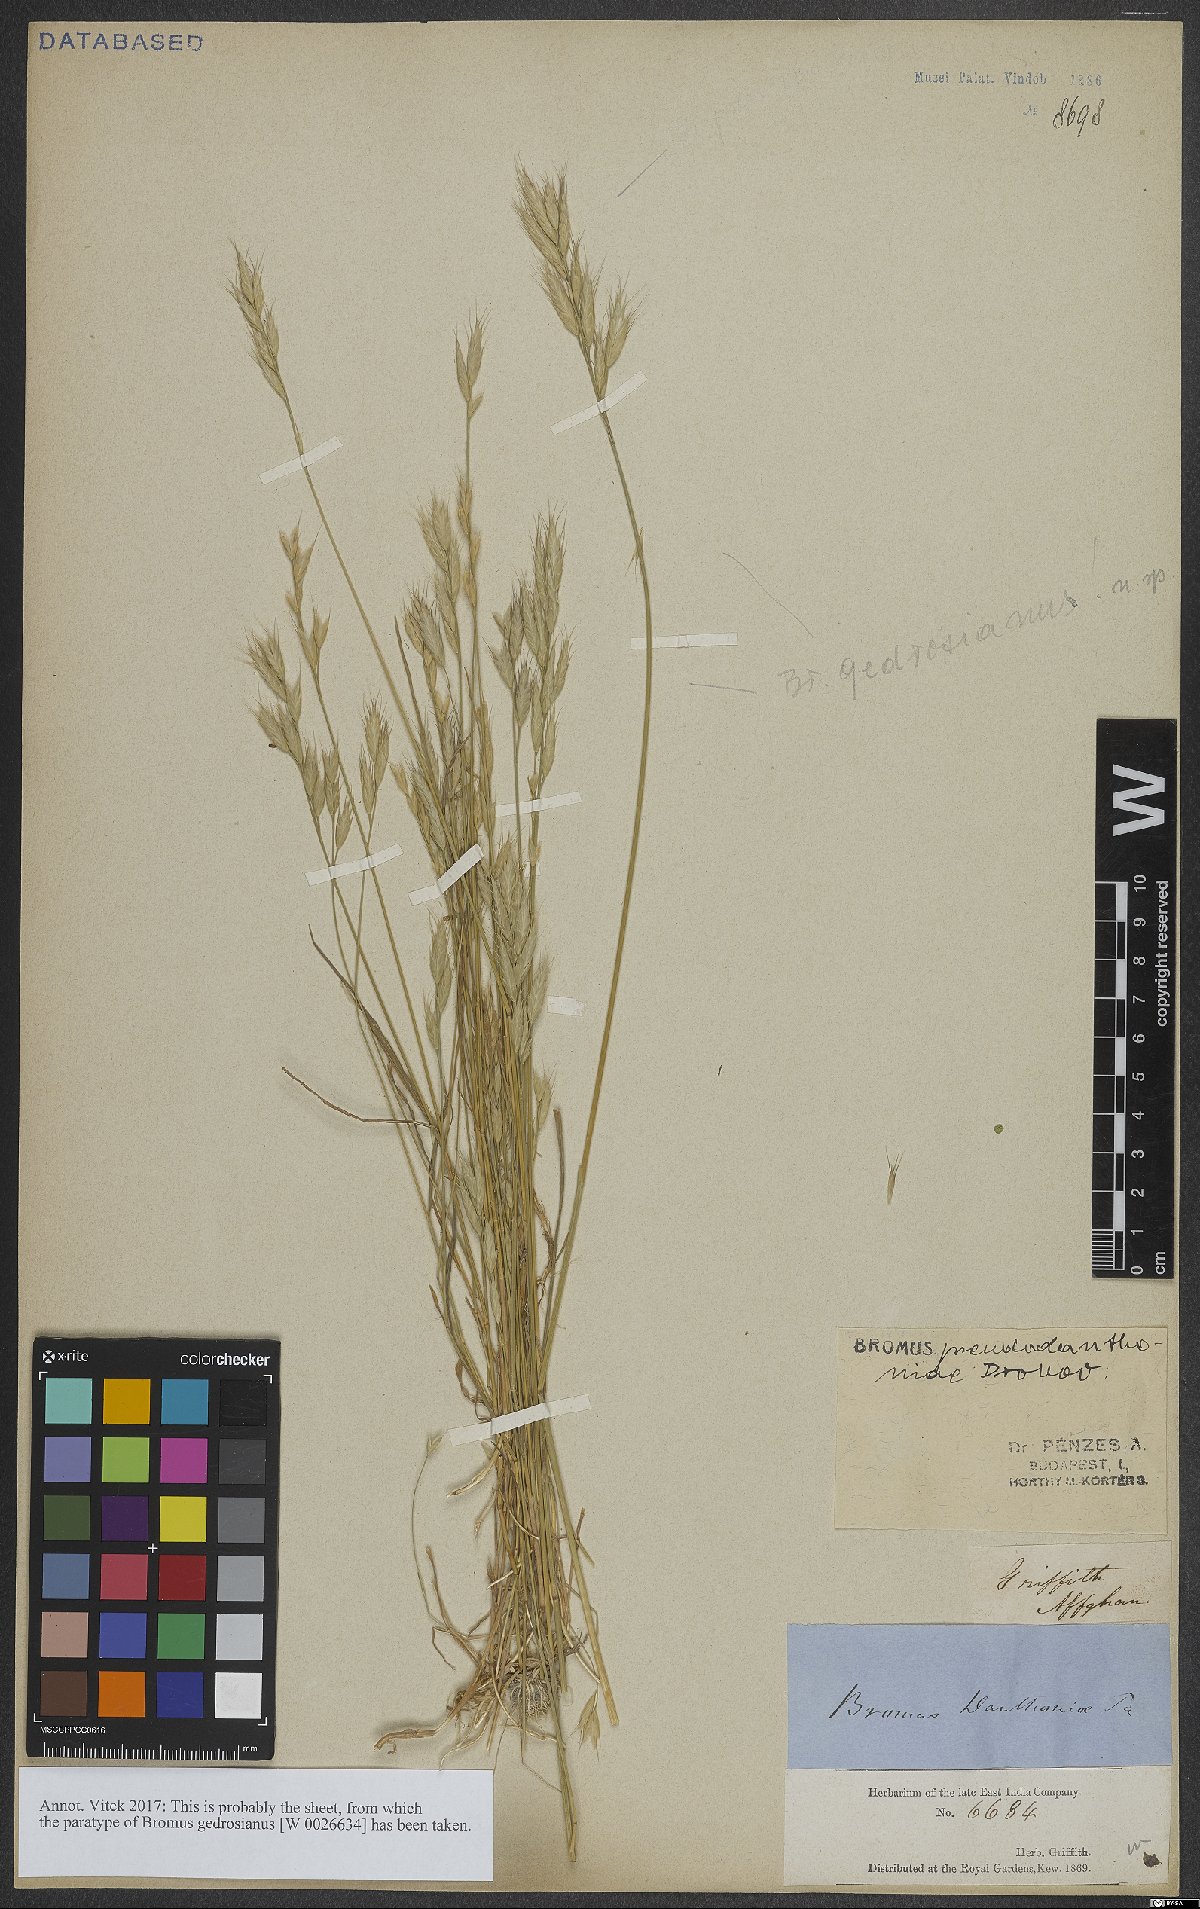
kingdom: Plantae
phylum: Tracheophyta
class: Liliopsida
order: Poales
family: Poaceae
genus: Bromus
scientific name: Bromus danthoniae
